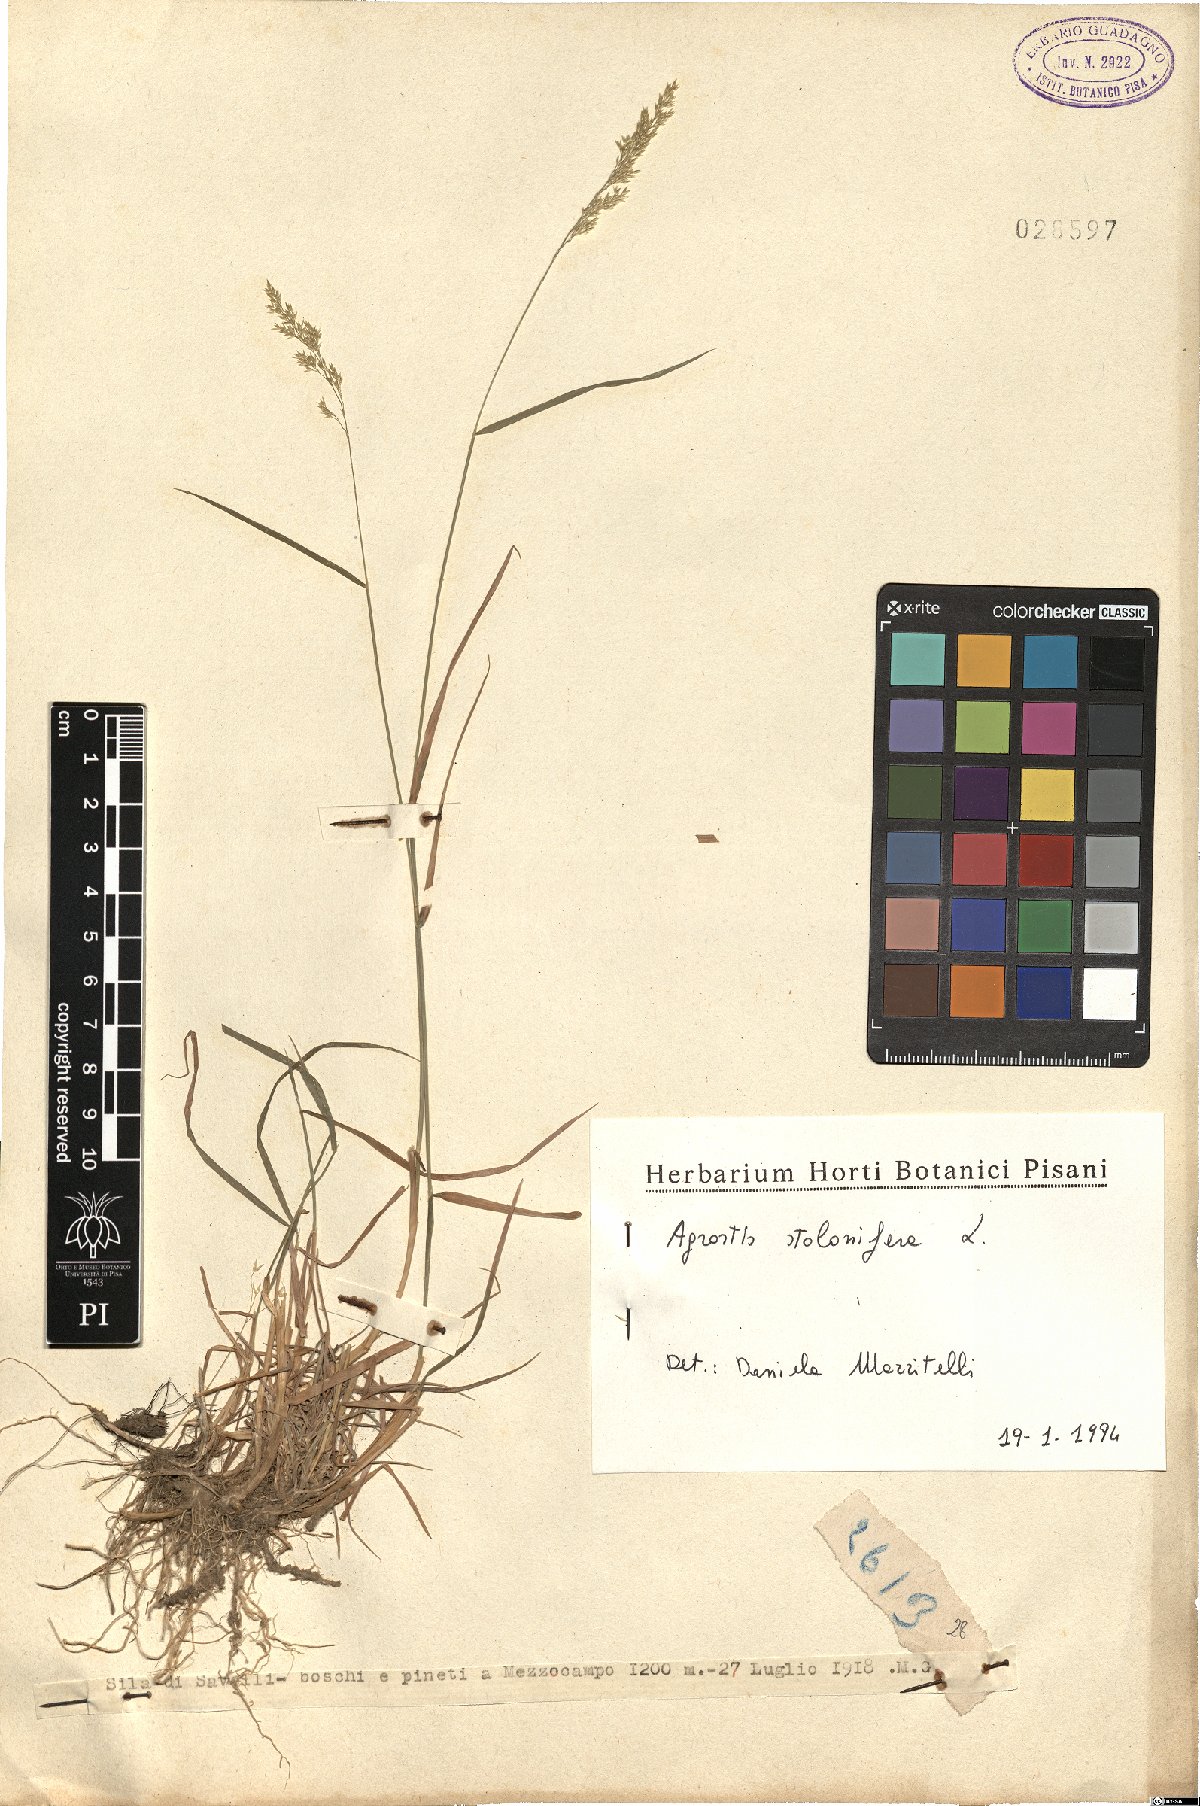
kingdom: Plantae
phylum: Tracheophyta
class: Liliopsida
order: Poales
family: Poaceae
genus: Agrostis
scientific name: Agrostis stolonifera
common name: Creeping bentgrass
